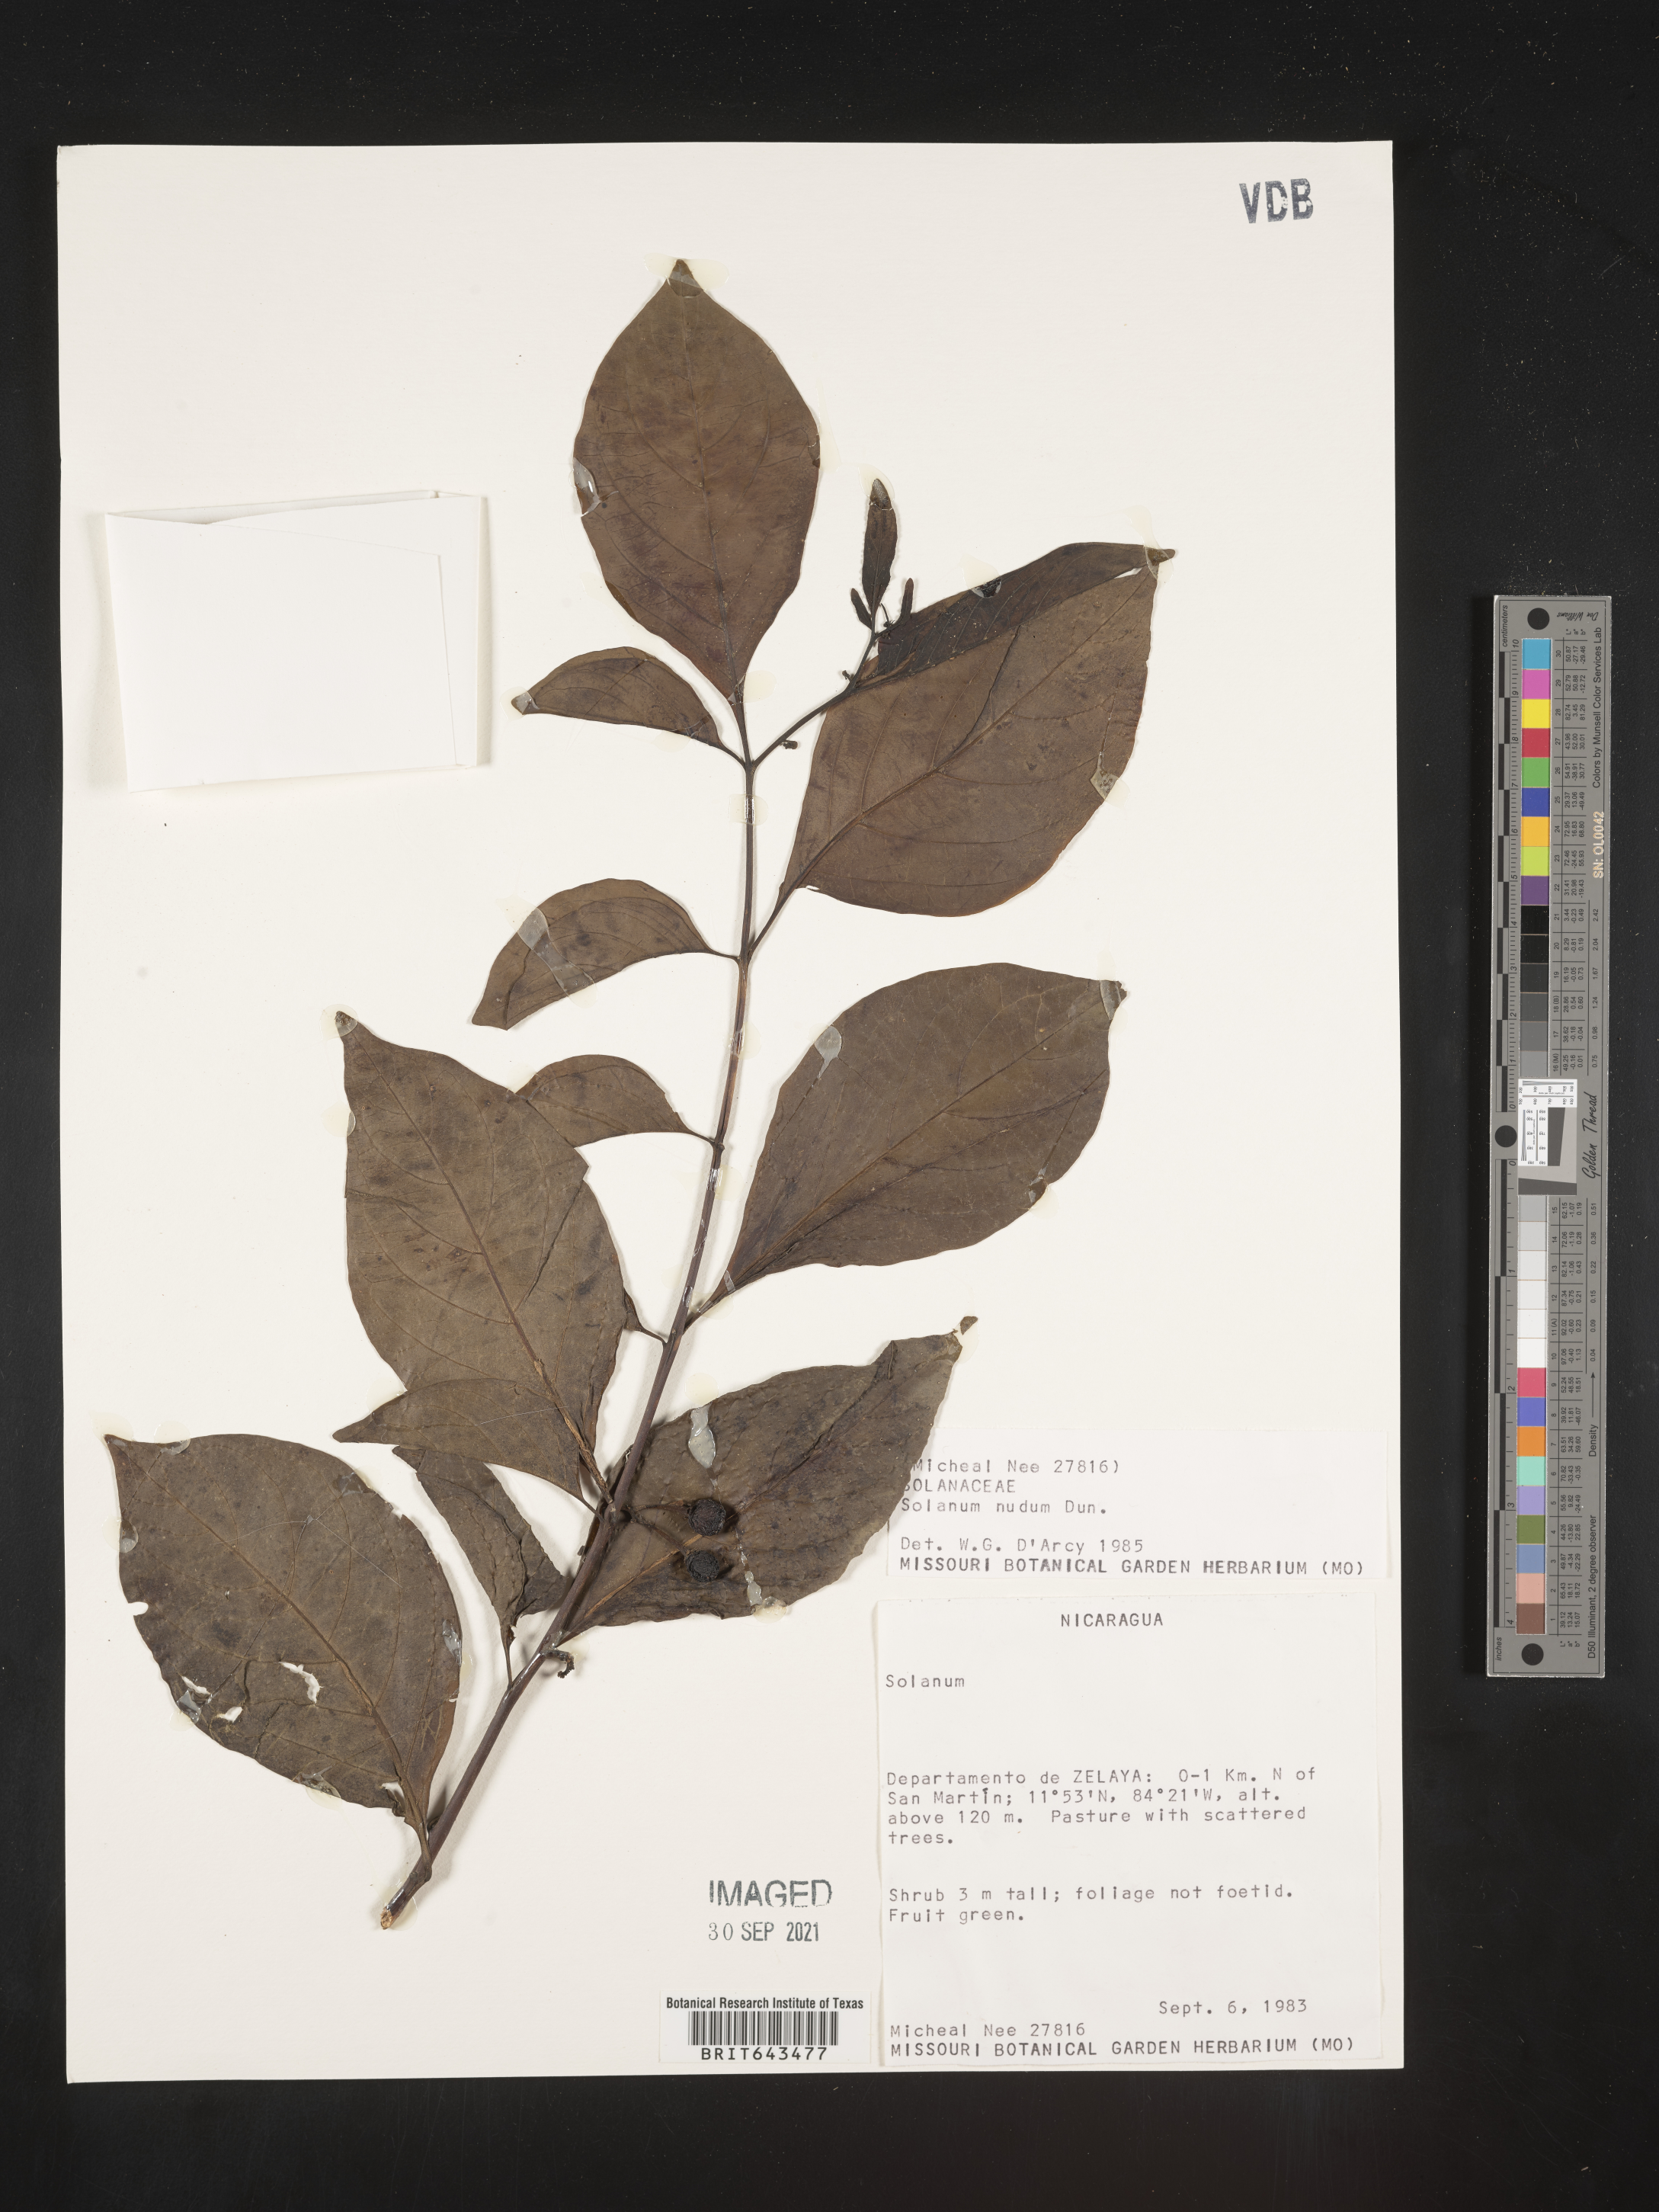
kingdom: Plantae
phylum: Tracheophyta
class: Magnoliopsida
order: Solanales
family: Solanaceae
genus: Solanum
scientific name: Solanum
